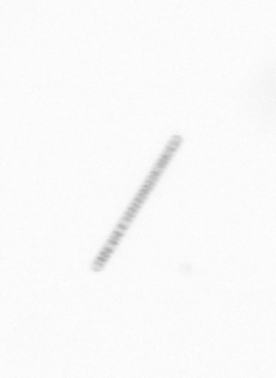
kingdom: Chromista
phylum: Ochrophyta
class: Bacillariophyceae
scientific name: Bacillariophyceae
